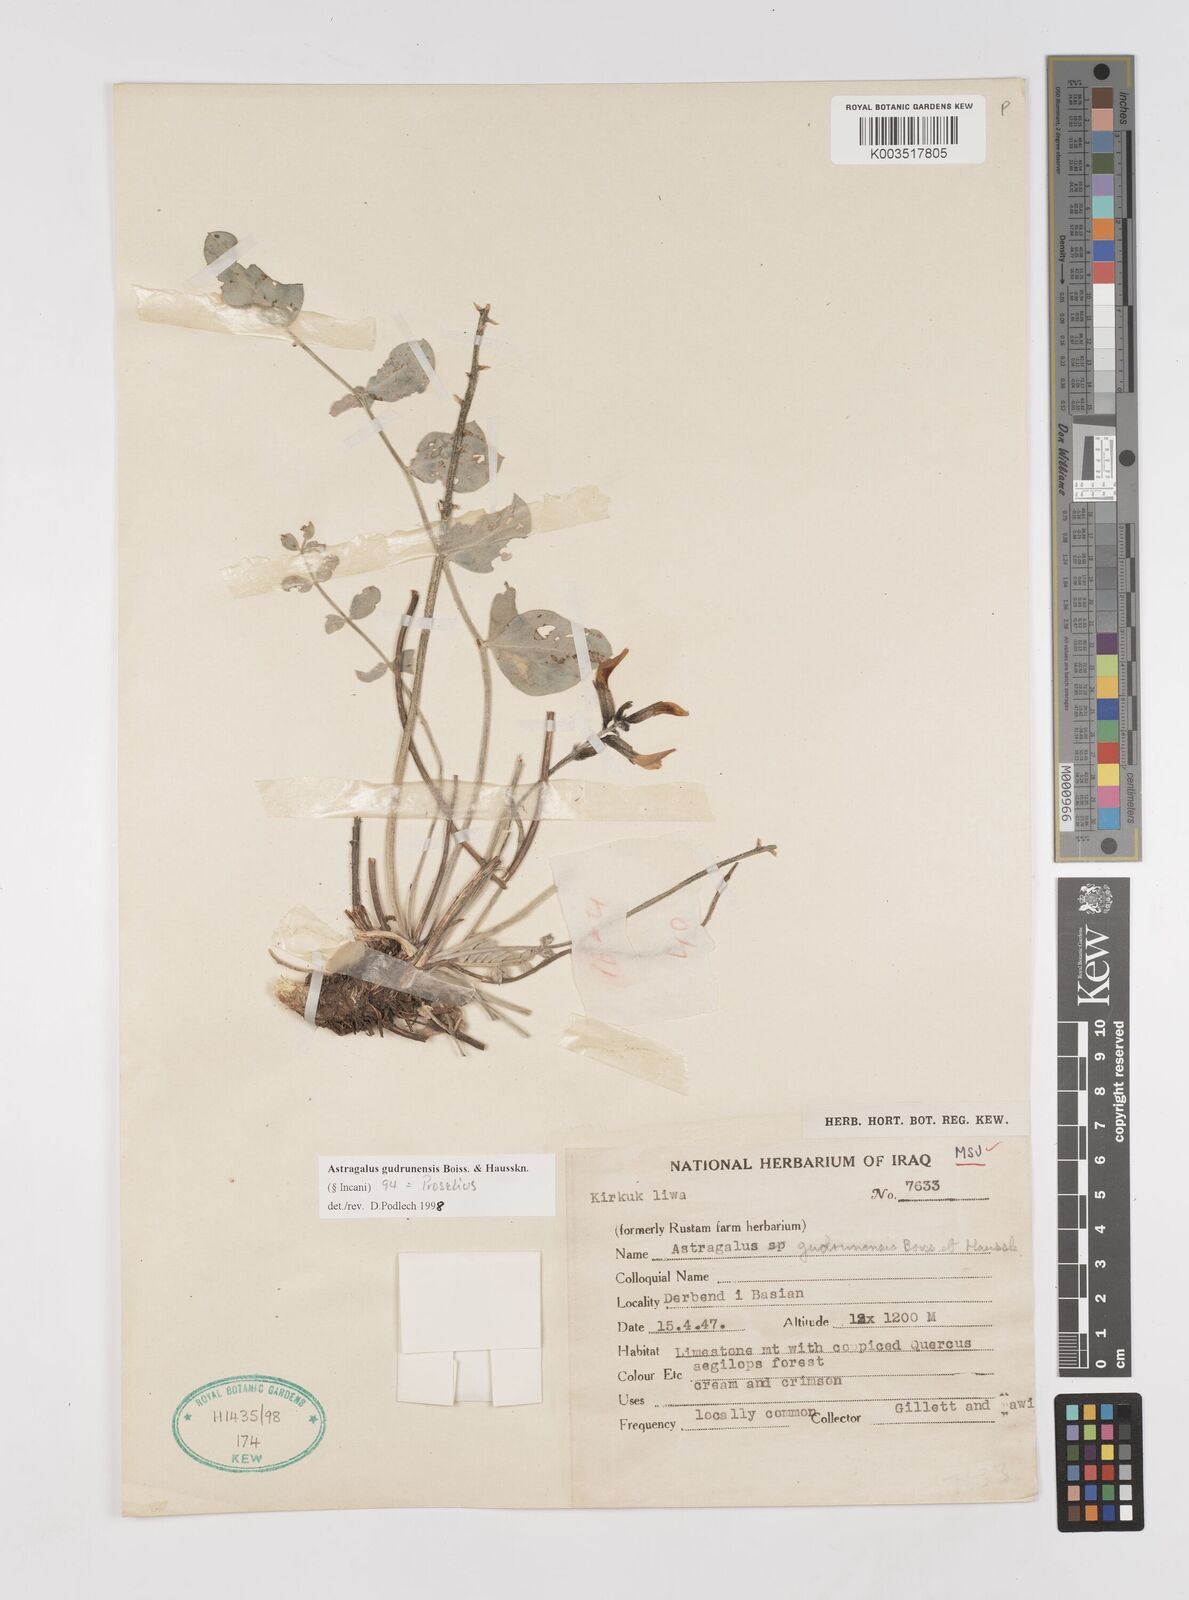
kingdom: Plantae
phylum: Tracheophyta
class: Magnoliopsida
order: Fabales
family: Fabaceae
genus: Astragalus
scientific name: Astragalus gudrunensis
